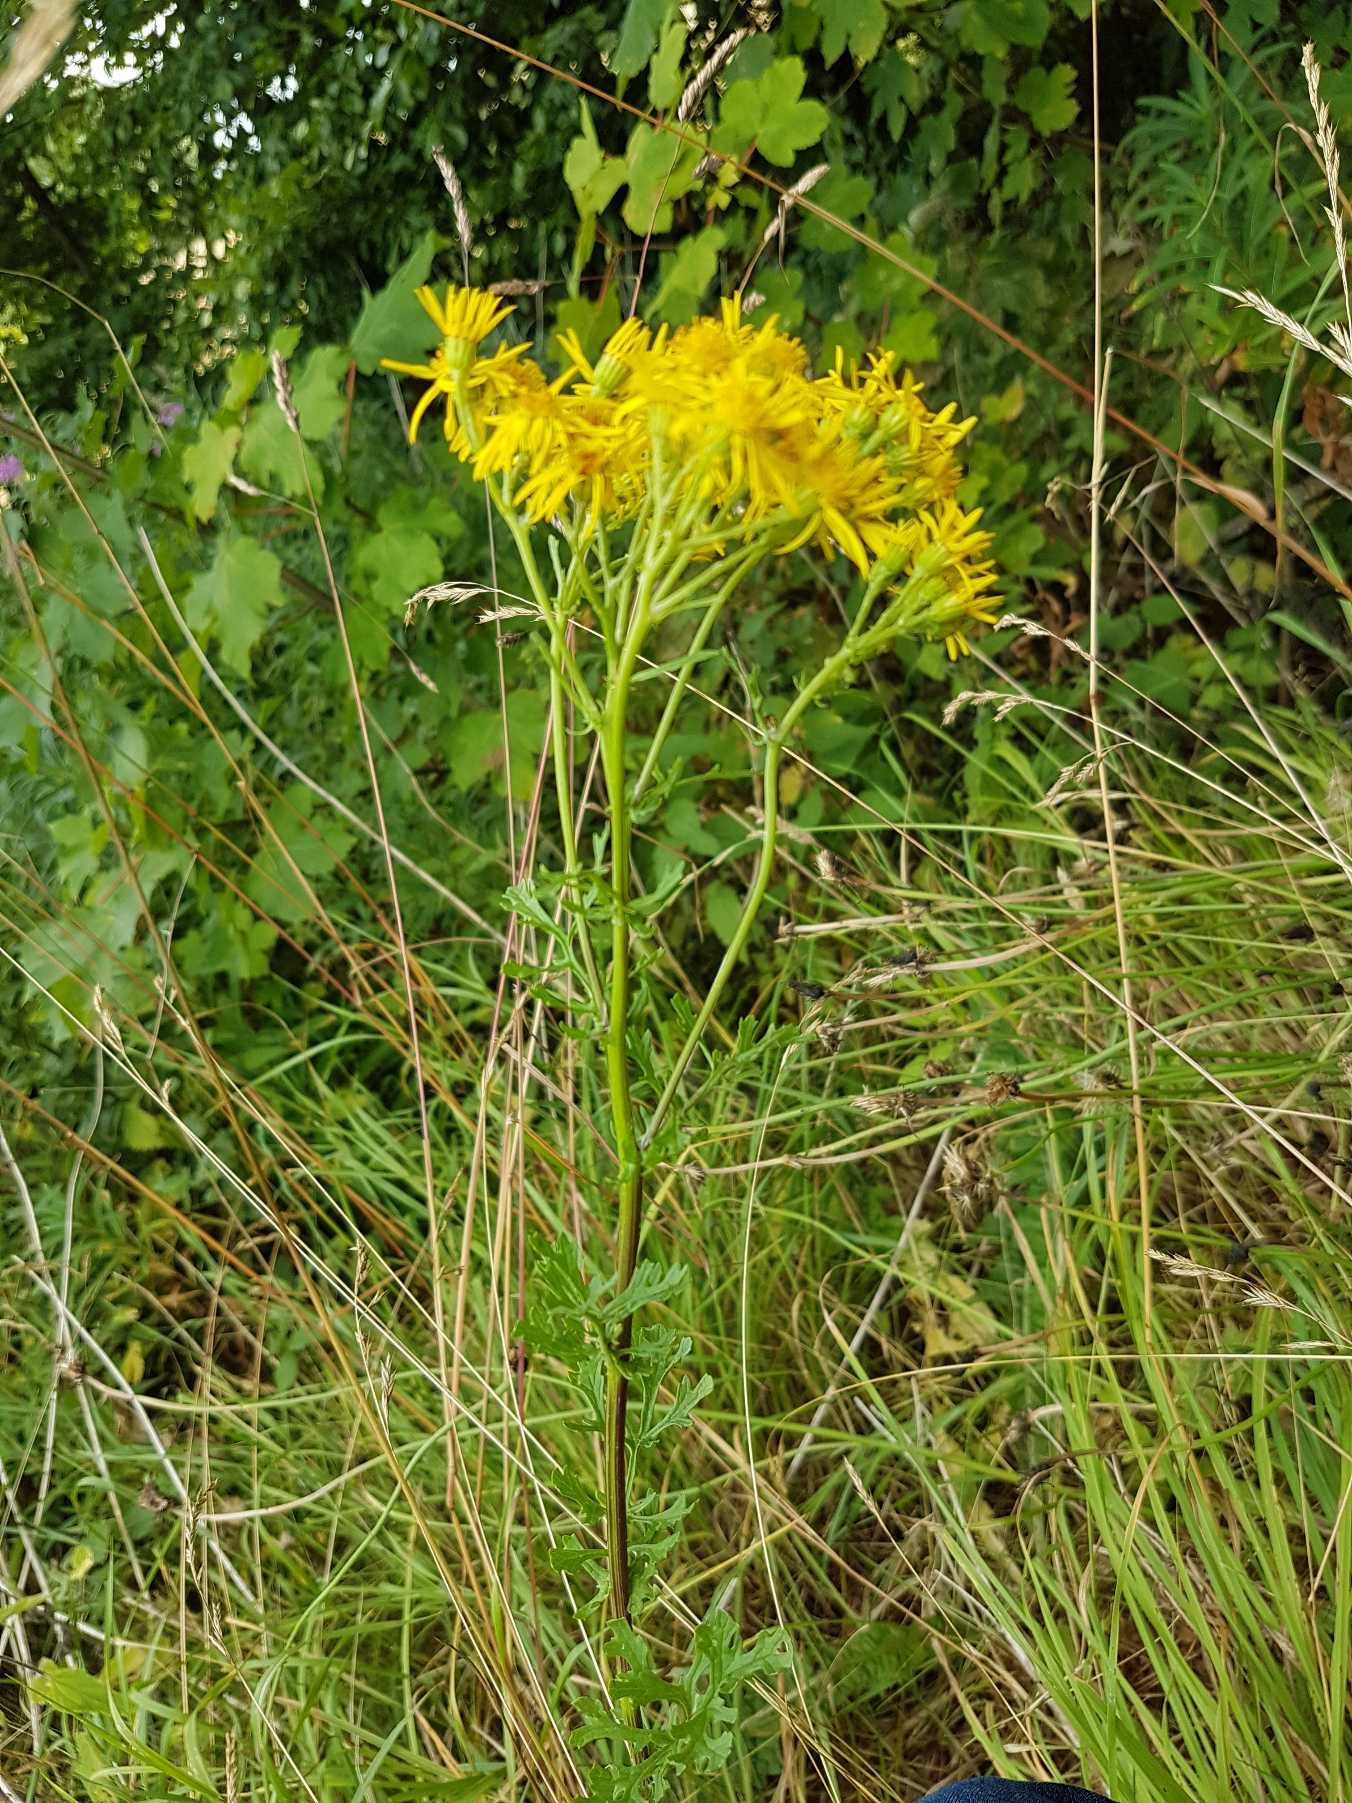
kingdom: Plantae
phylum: Tracheophyta
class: Magnoliopsida
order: Asterales
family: Asteraceae
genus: Jacobaea
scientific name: Jacobaea vulgaris
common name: Eng-brandbæger
